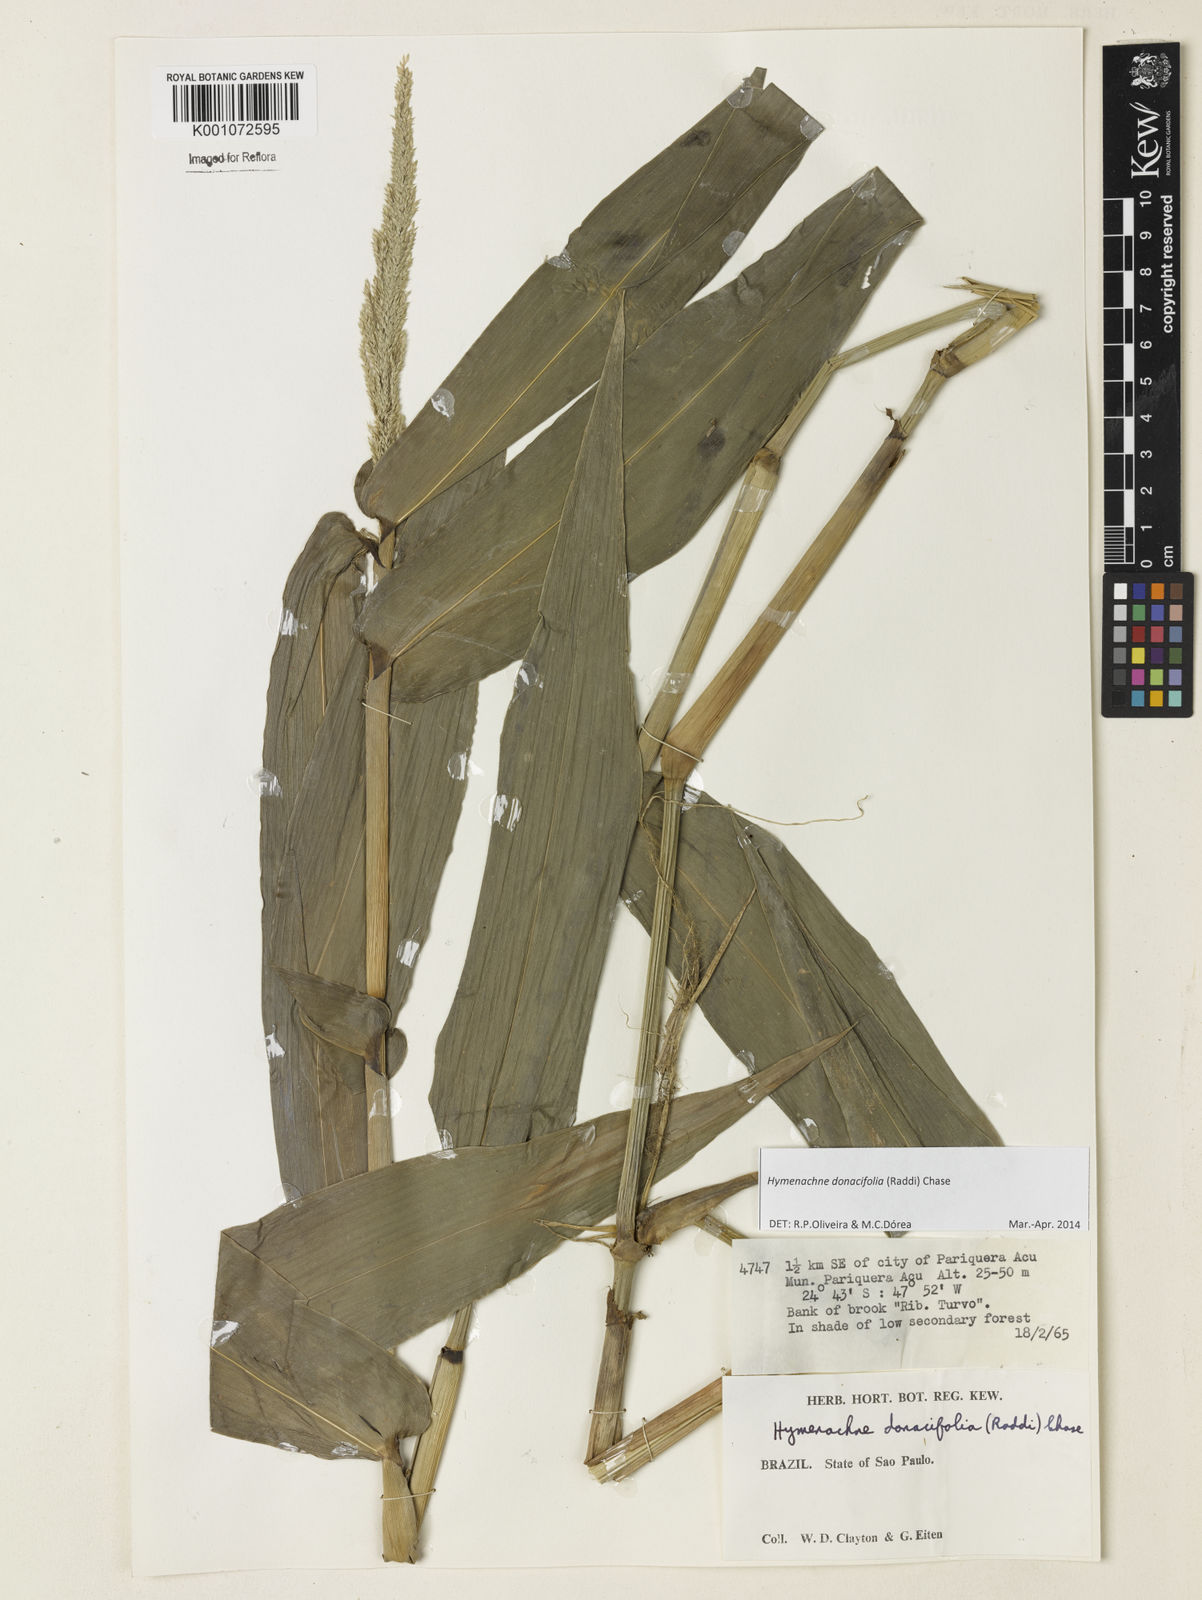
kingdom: Plantae
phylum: Tracheophyta
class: Liliopsida
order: Poales
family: Poaceae
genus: Hymenachne
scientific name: Hymenachne donacifolia
